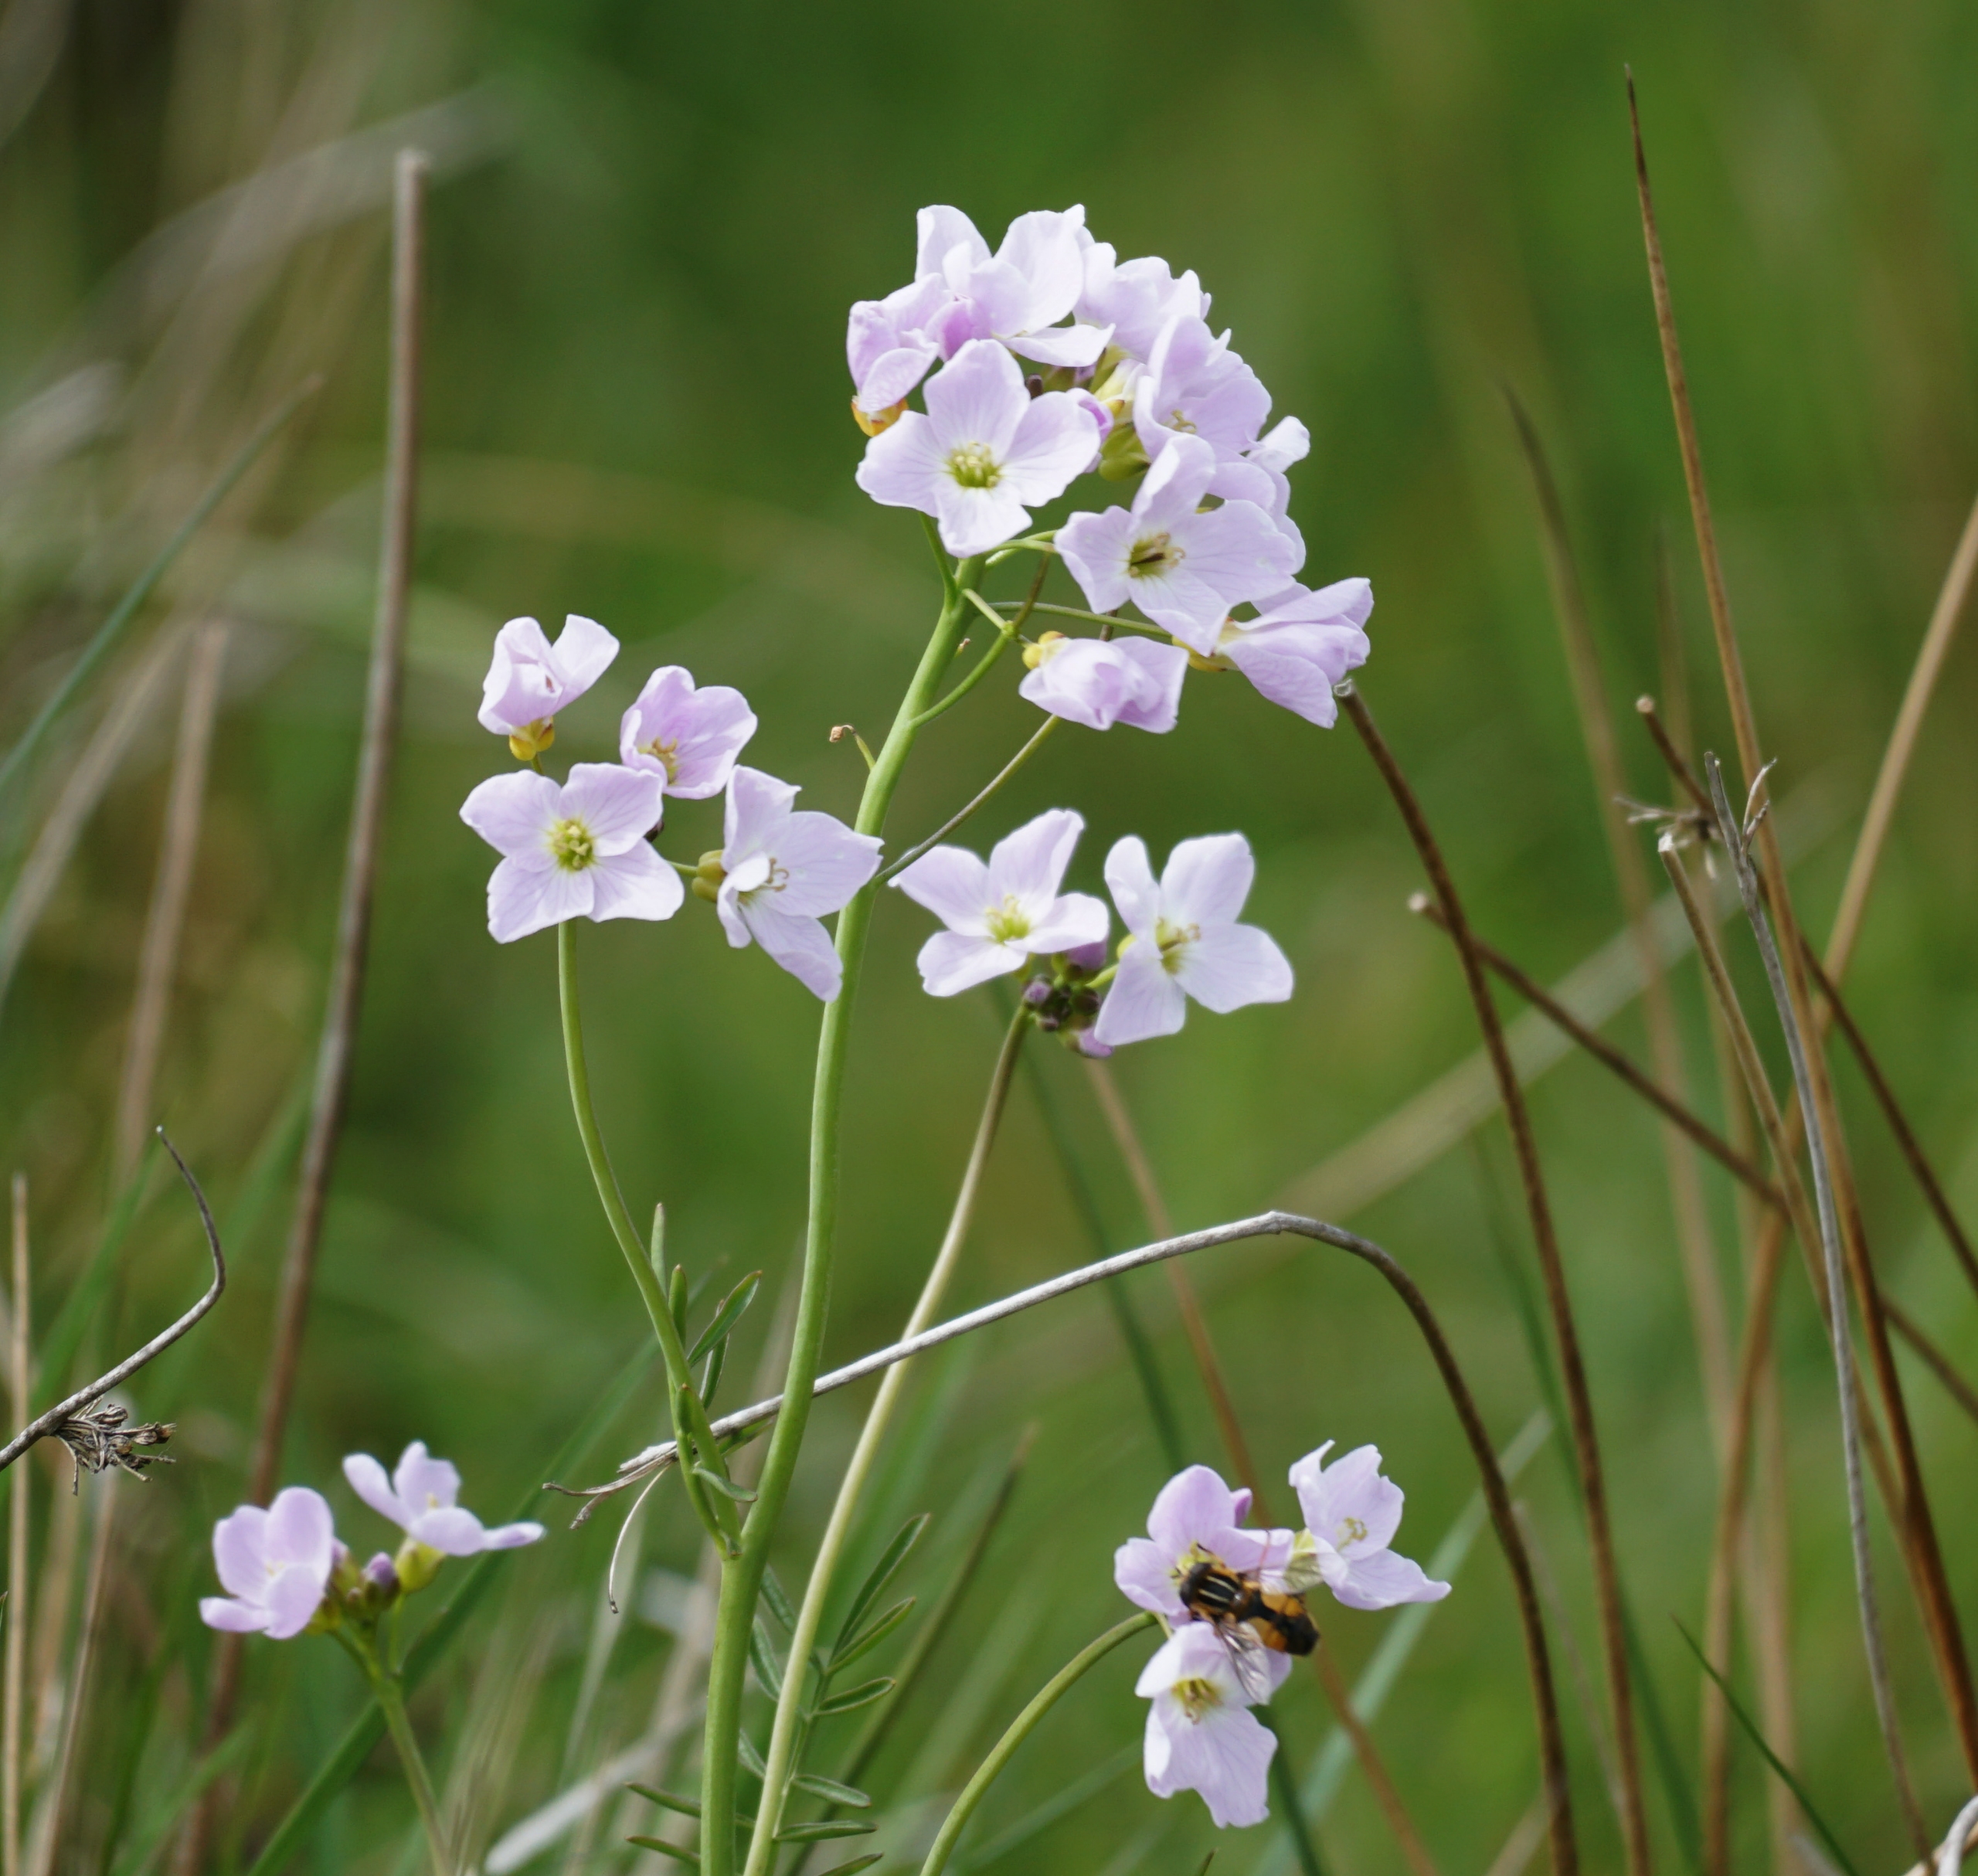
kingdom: Plantae
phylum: Tracheophyta
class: Magnoliopsida
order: Brassicales
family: Brassicaceae
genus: Cardamine
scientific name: Cardamine pratensis
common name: Engkarse
